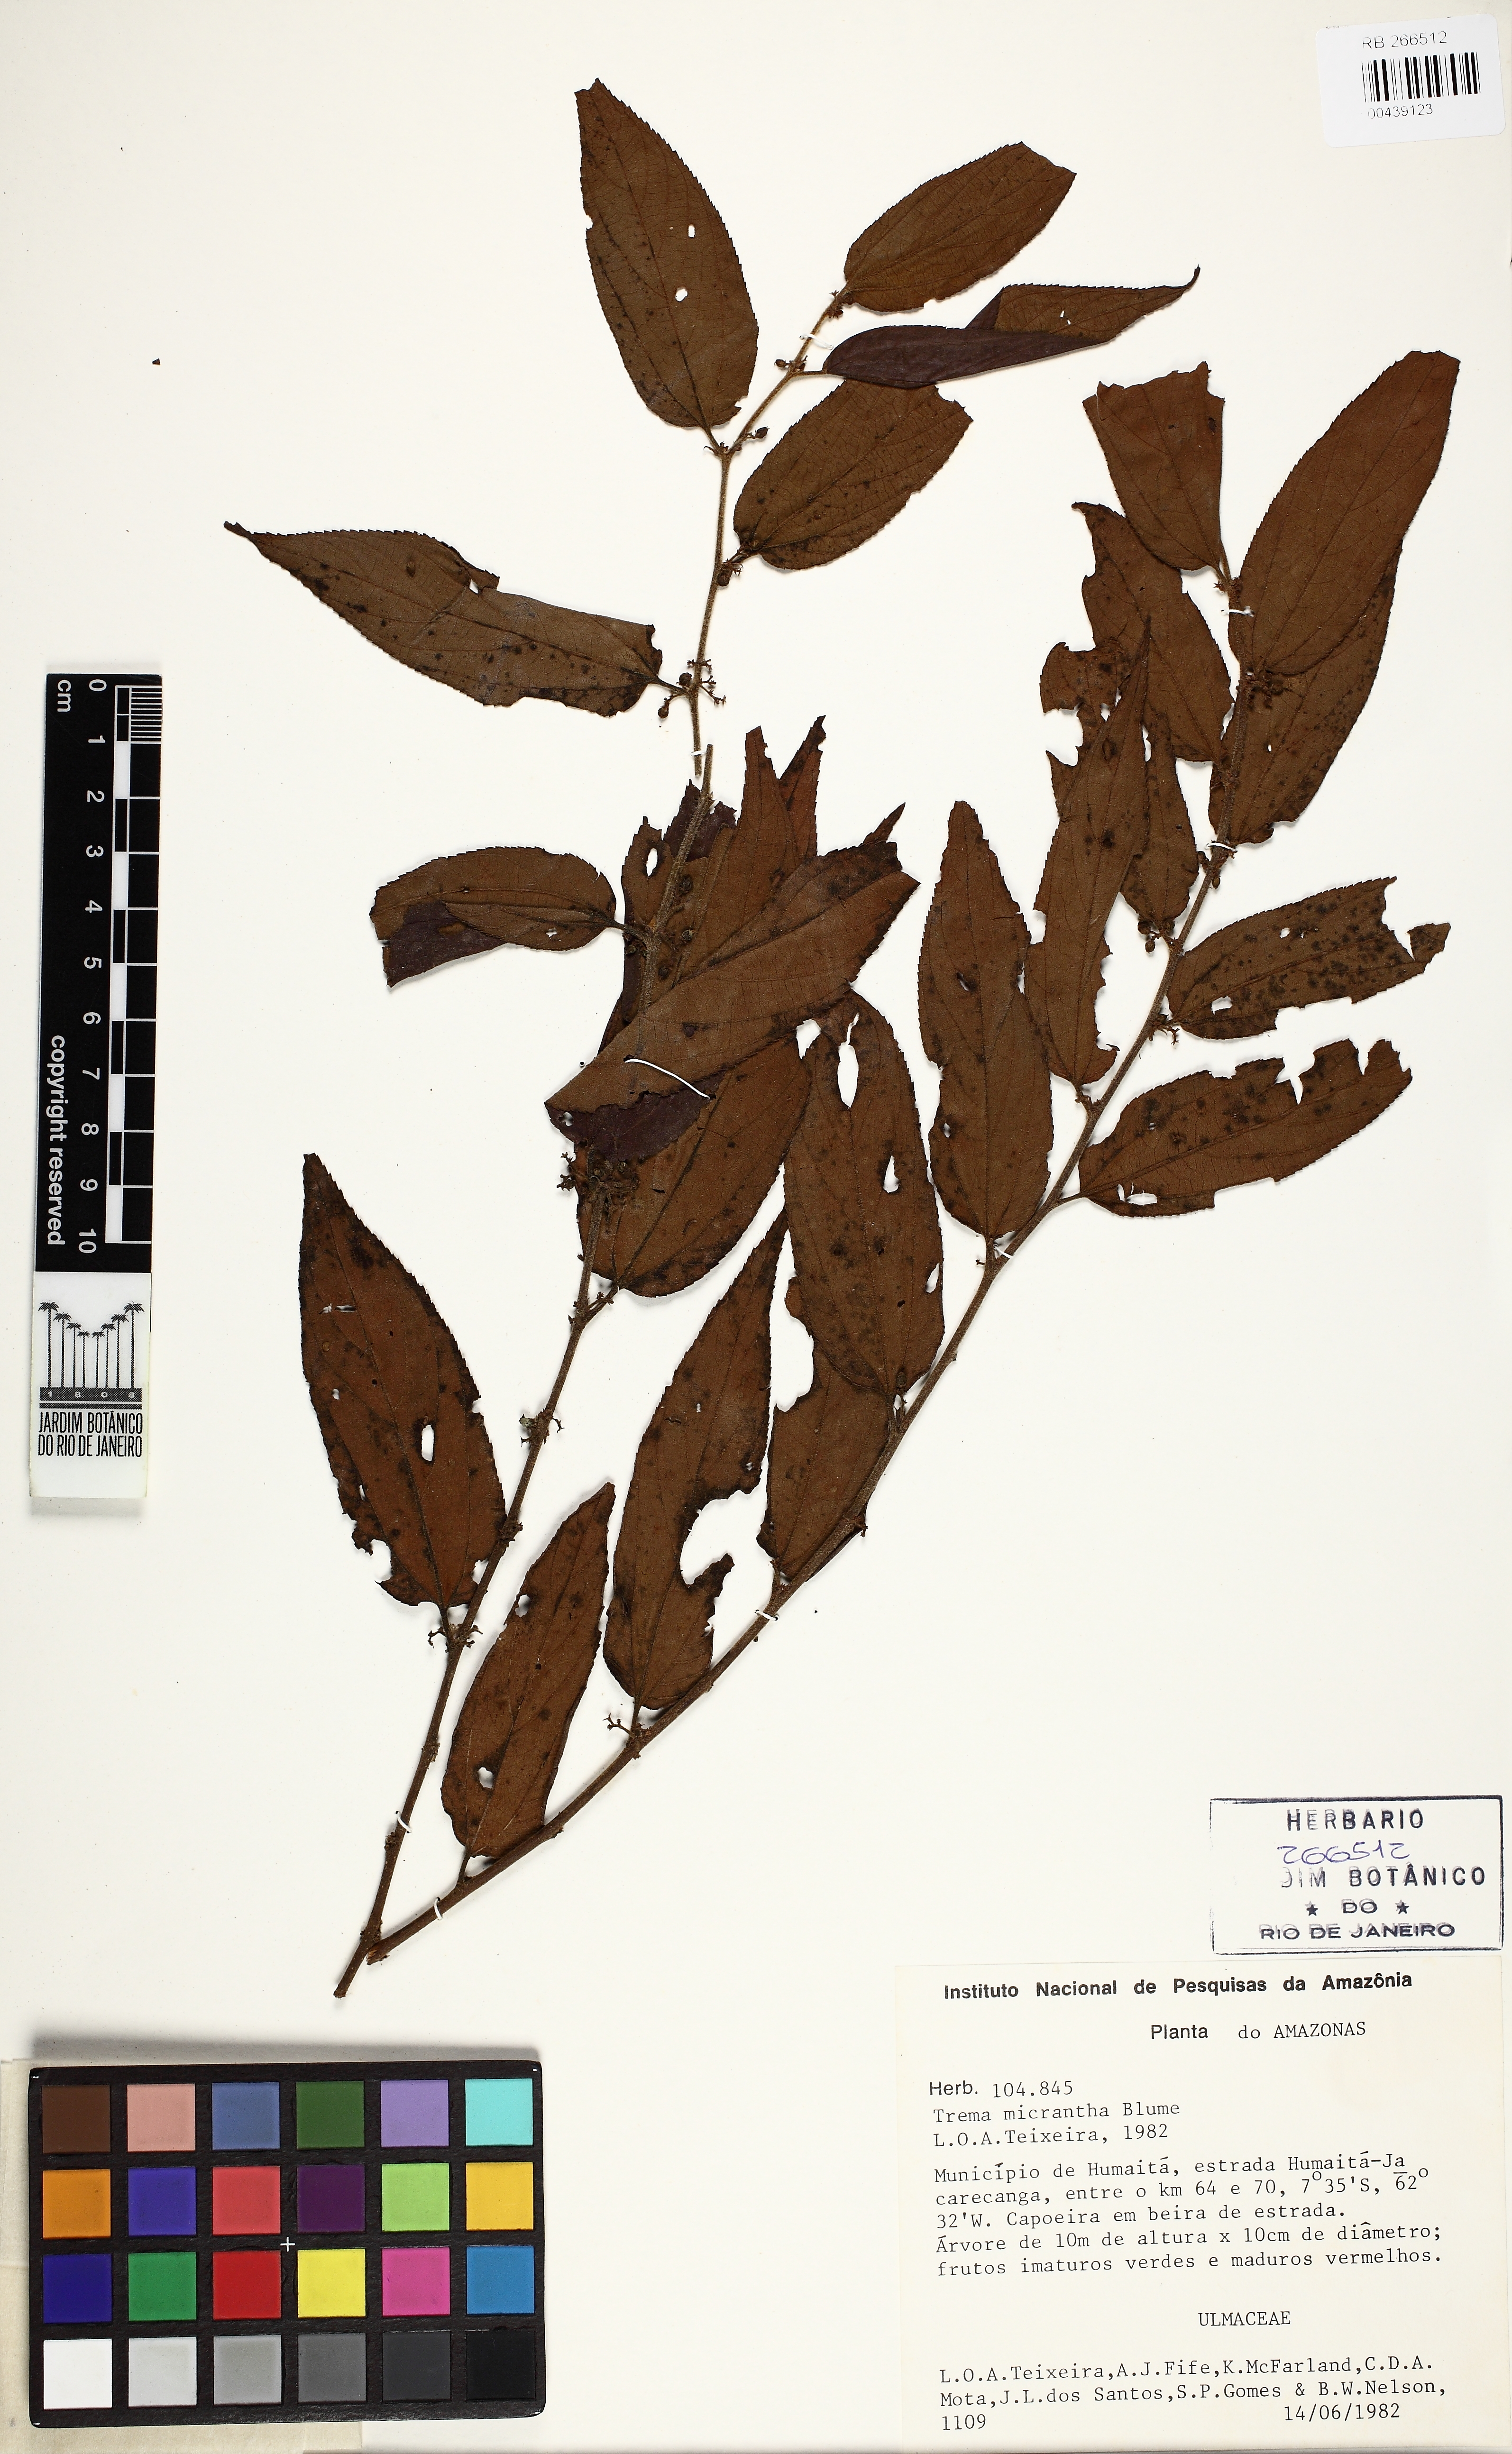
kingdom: Plantae
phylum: Tracheophyta
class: Magnoliopsida
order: Rosales
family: Cannabaceae
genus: Trema
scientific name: Trema micranthum
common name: Jamaican nettletree
